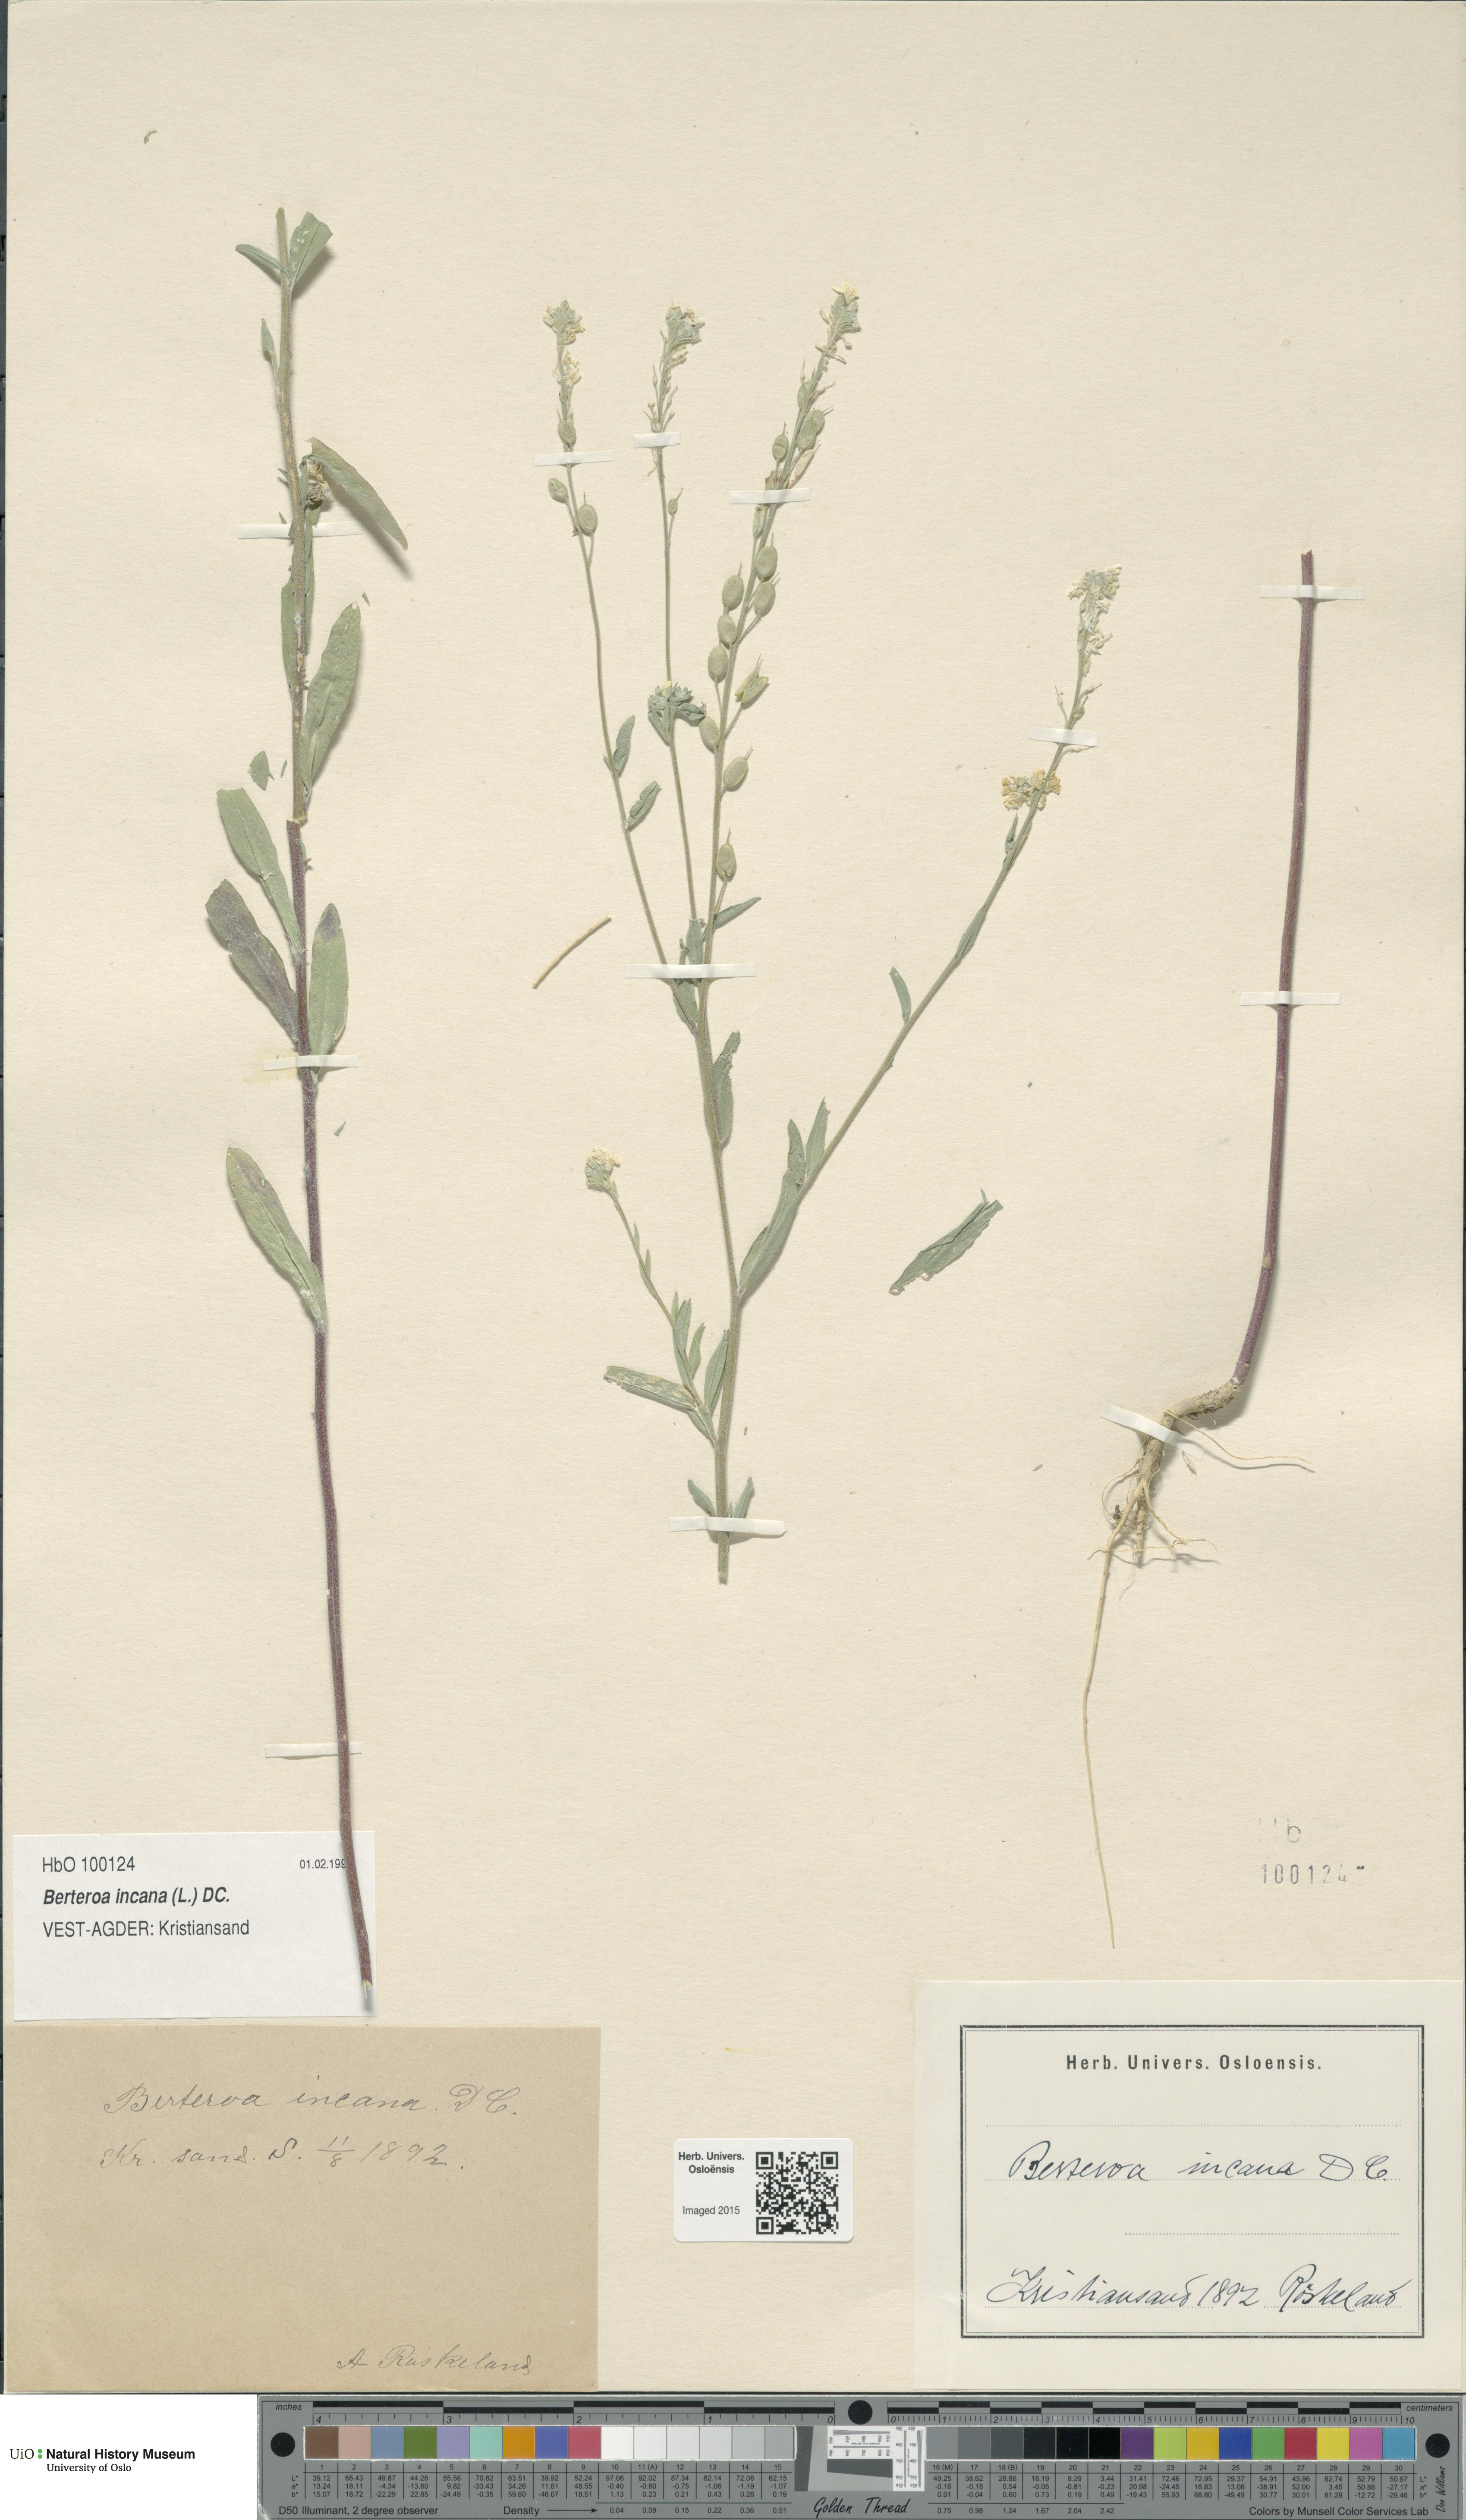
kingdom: Plantae
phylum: Tracheophyta
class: Magnoliopsida
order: Brassicales
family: Brassicaceae
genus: Berteroa
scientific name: Berteroa incana
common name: Hoary alison
